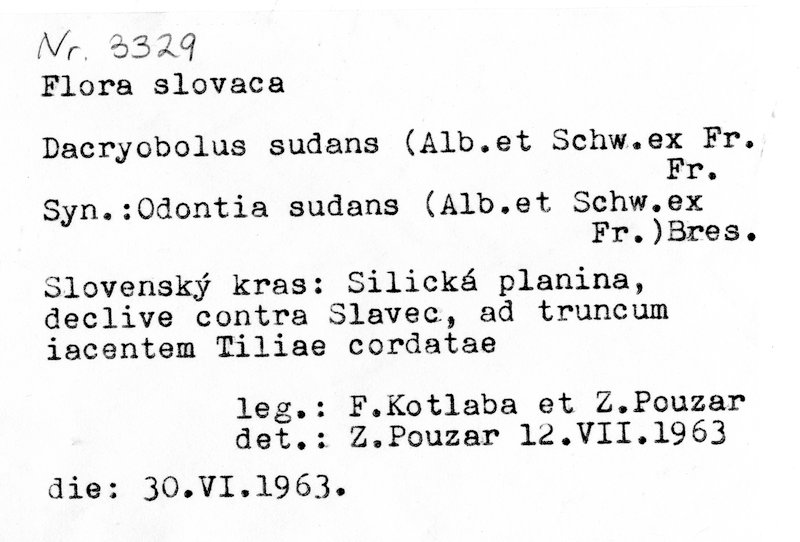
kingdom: Plantae
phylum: Tracheophyta
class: Magnoliopsida
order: Malvales
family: Malvaceae
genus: Tilia
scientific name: Tilia cordata
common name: Small-leaved lime
